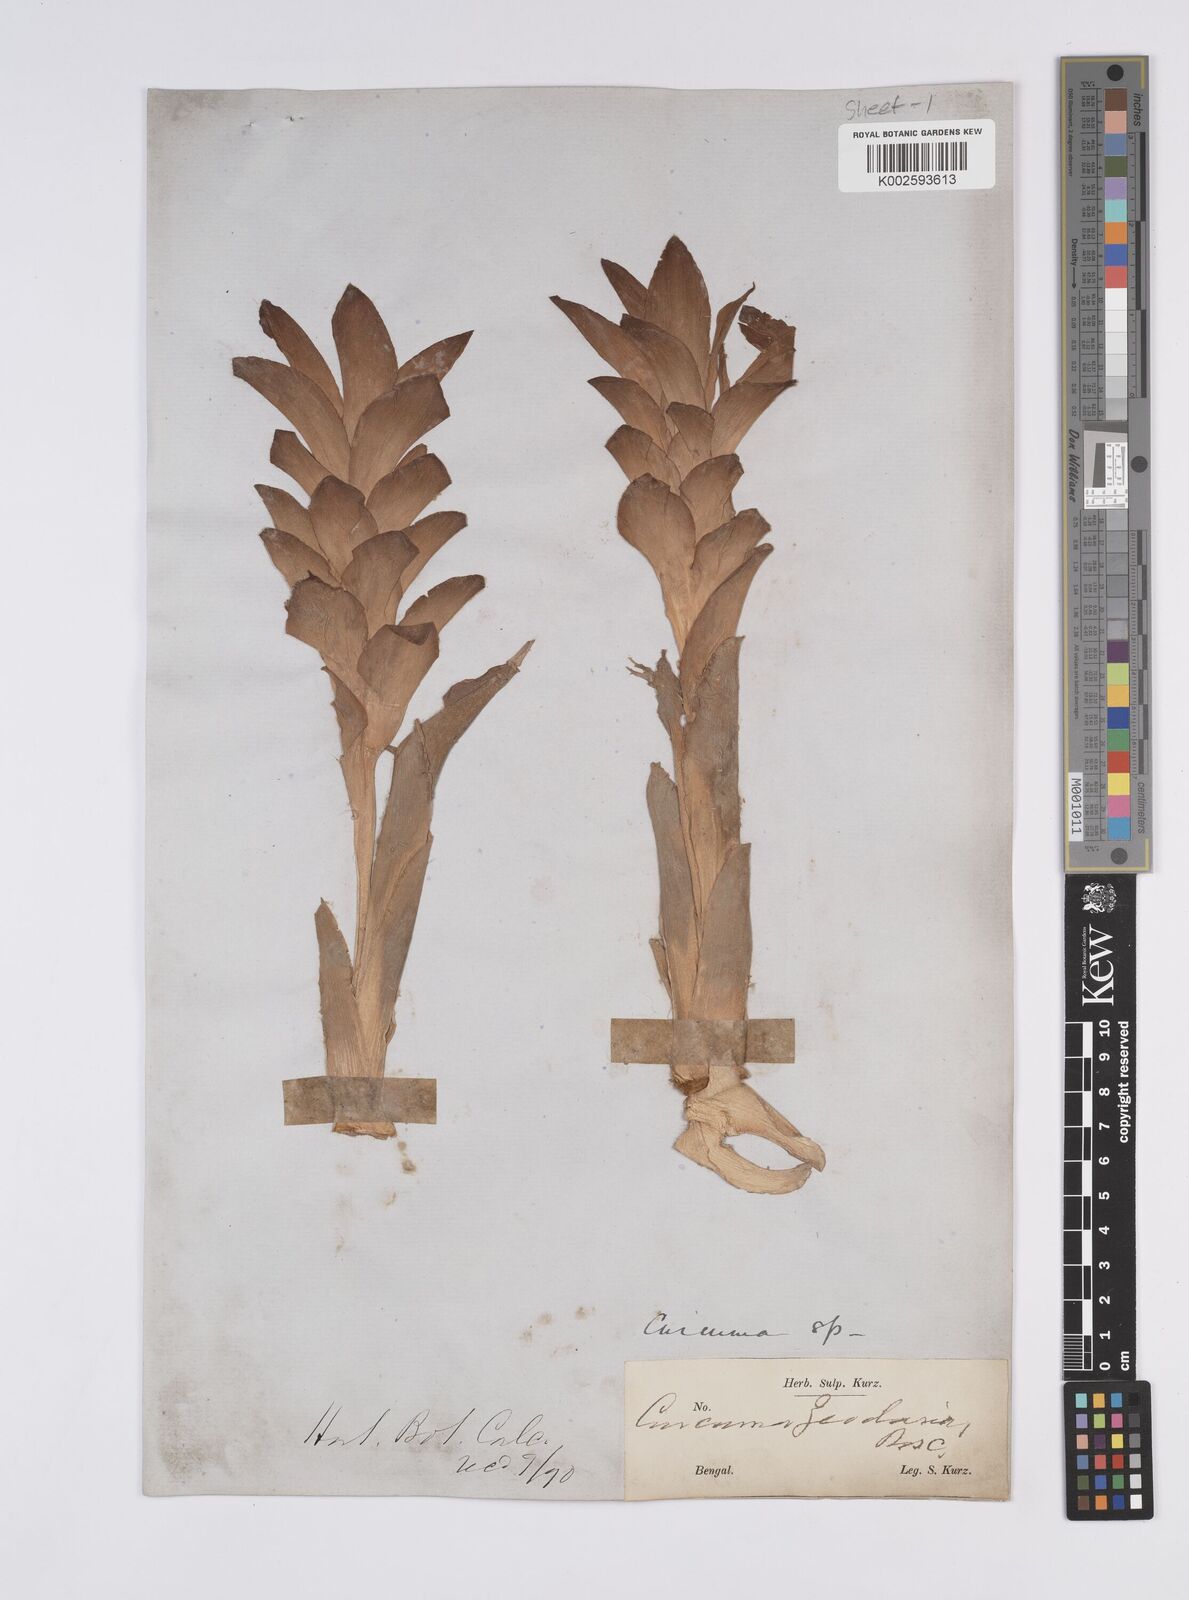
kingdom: Plantae
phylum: Tracheophyta
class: Liliopsida
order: Zingiberales
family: Zingiberaceae
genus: Curcuma
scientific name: Curcuma
